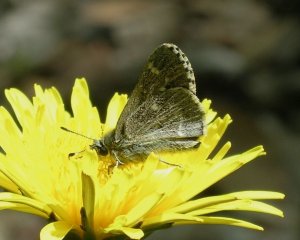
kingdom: Animalia
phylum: Arthropoda
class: Insecta
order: Lepidoptera
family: Hesperiidae
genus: Mastor
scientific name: Mastor hegon
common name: Pepper and Salt Skipper
